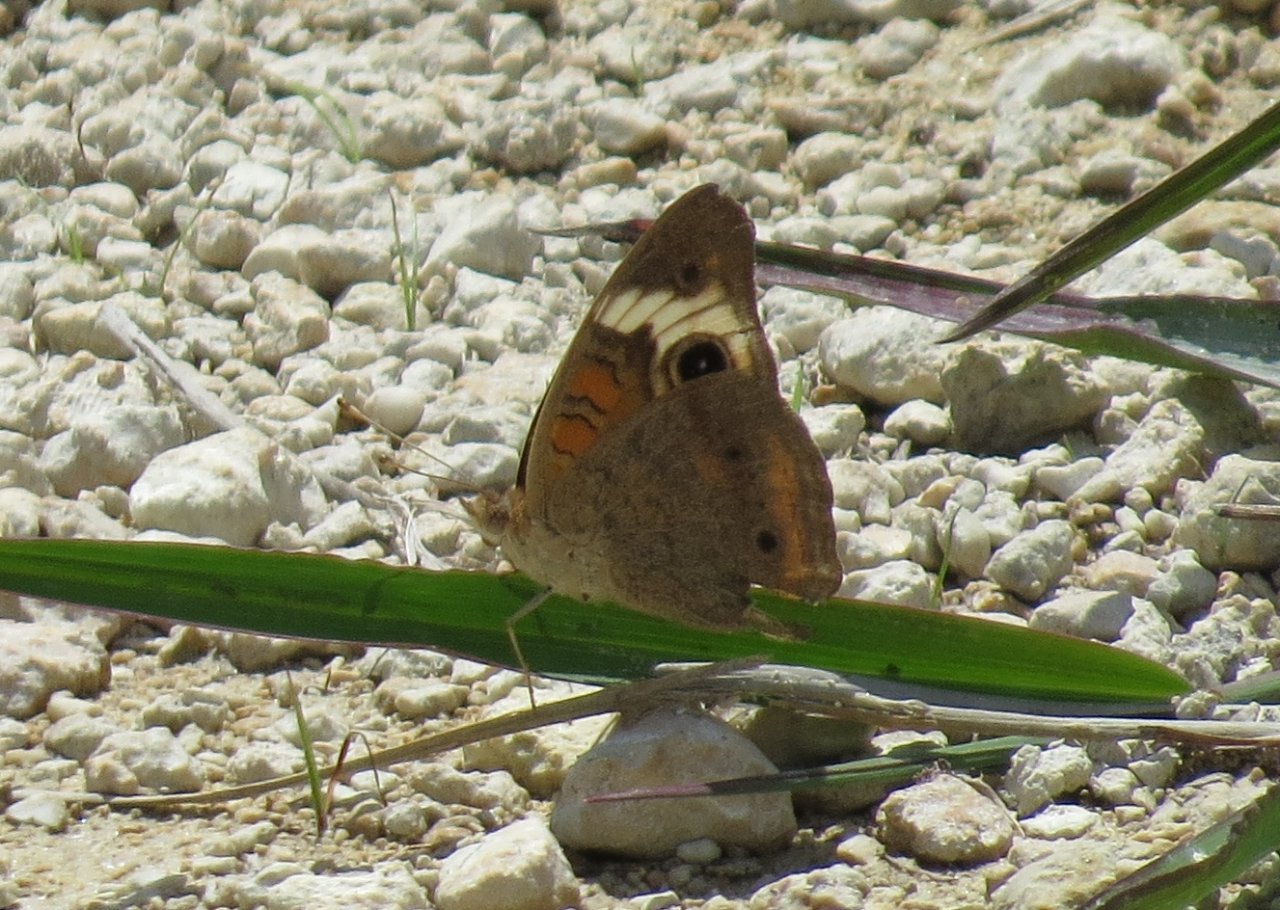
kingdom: Animalia
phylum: Arthropoda
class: Insecta
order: Lepidoptera
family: Nymphalidae
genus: Junonia
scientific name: Junonia coenia
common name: Common Buckeye
